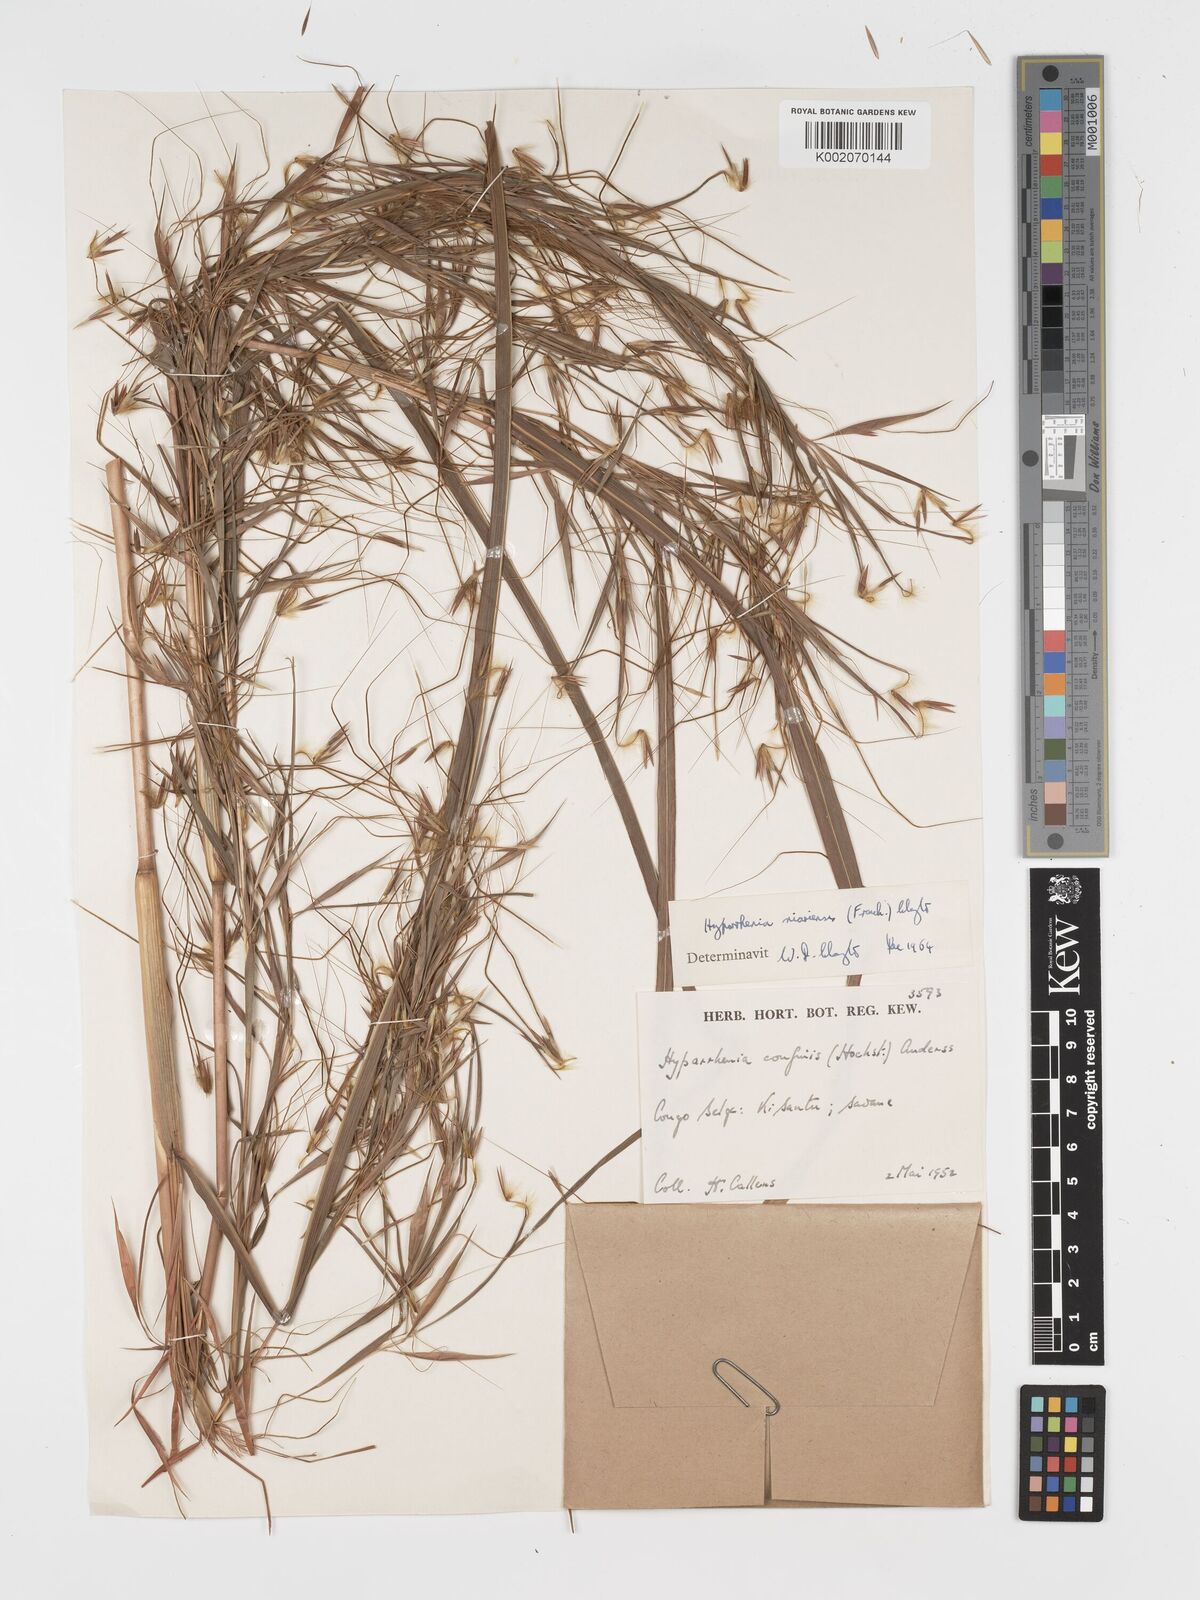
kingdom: Plantae
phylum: Tracheophyta
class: Liliopsida
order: Poales
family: Poaceae
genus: Hyparrhenia
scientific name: Hyparrhenia niariensis
